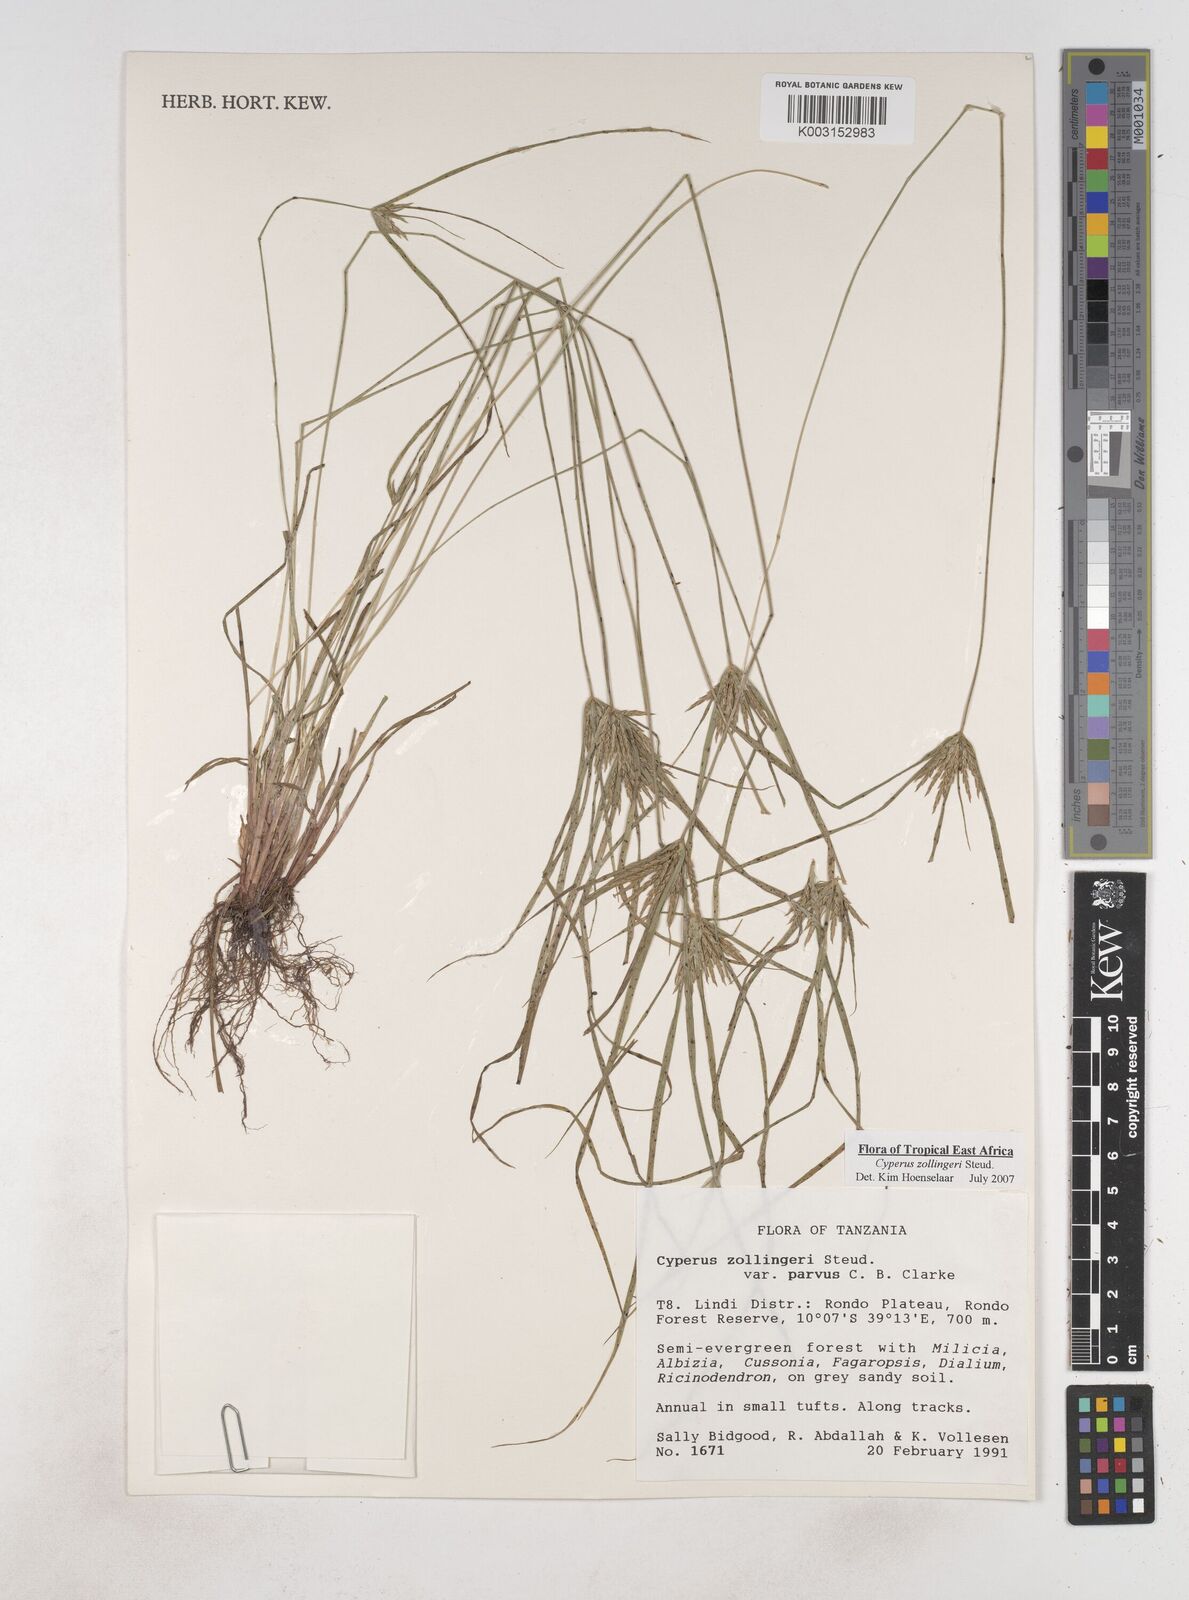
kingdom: Plantae
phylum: Tracheophyta
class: Liliopsida
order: Poales
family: Cyperaceae
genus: Cyperus
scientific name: Cyperus zollingeri
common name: Roadside flatsedge
